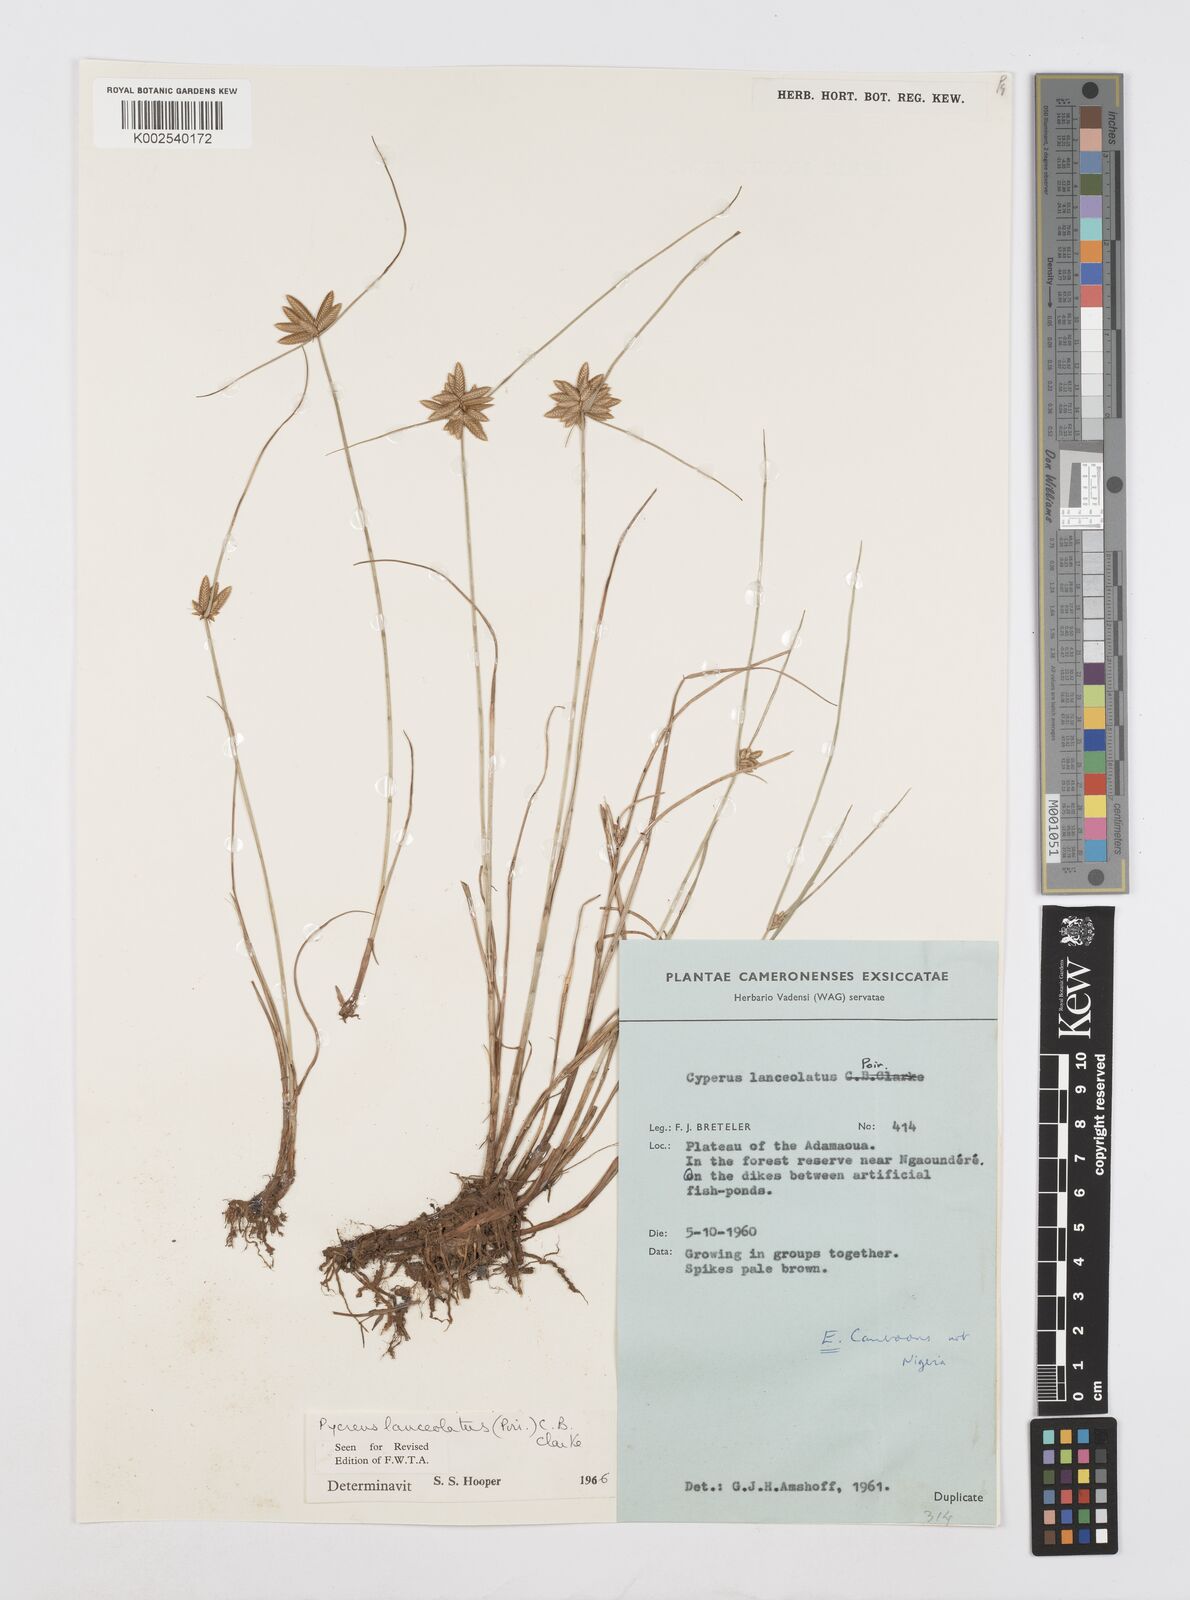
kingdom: Plantae
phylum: Tracheophyta
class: Liliopsida
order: Poales
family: Cyperaceae
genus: Cyperus
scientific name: Cyperus
